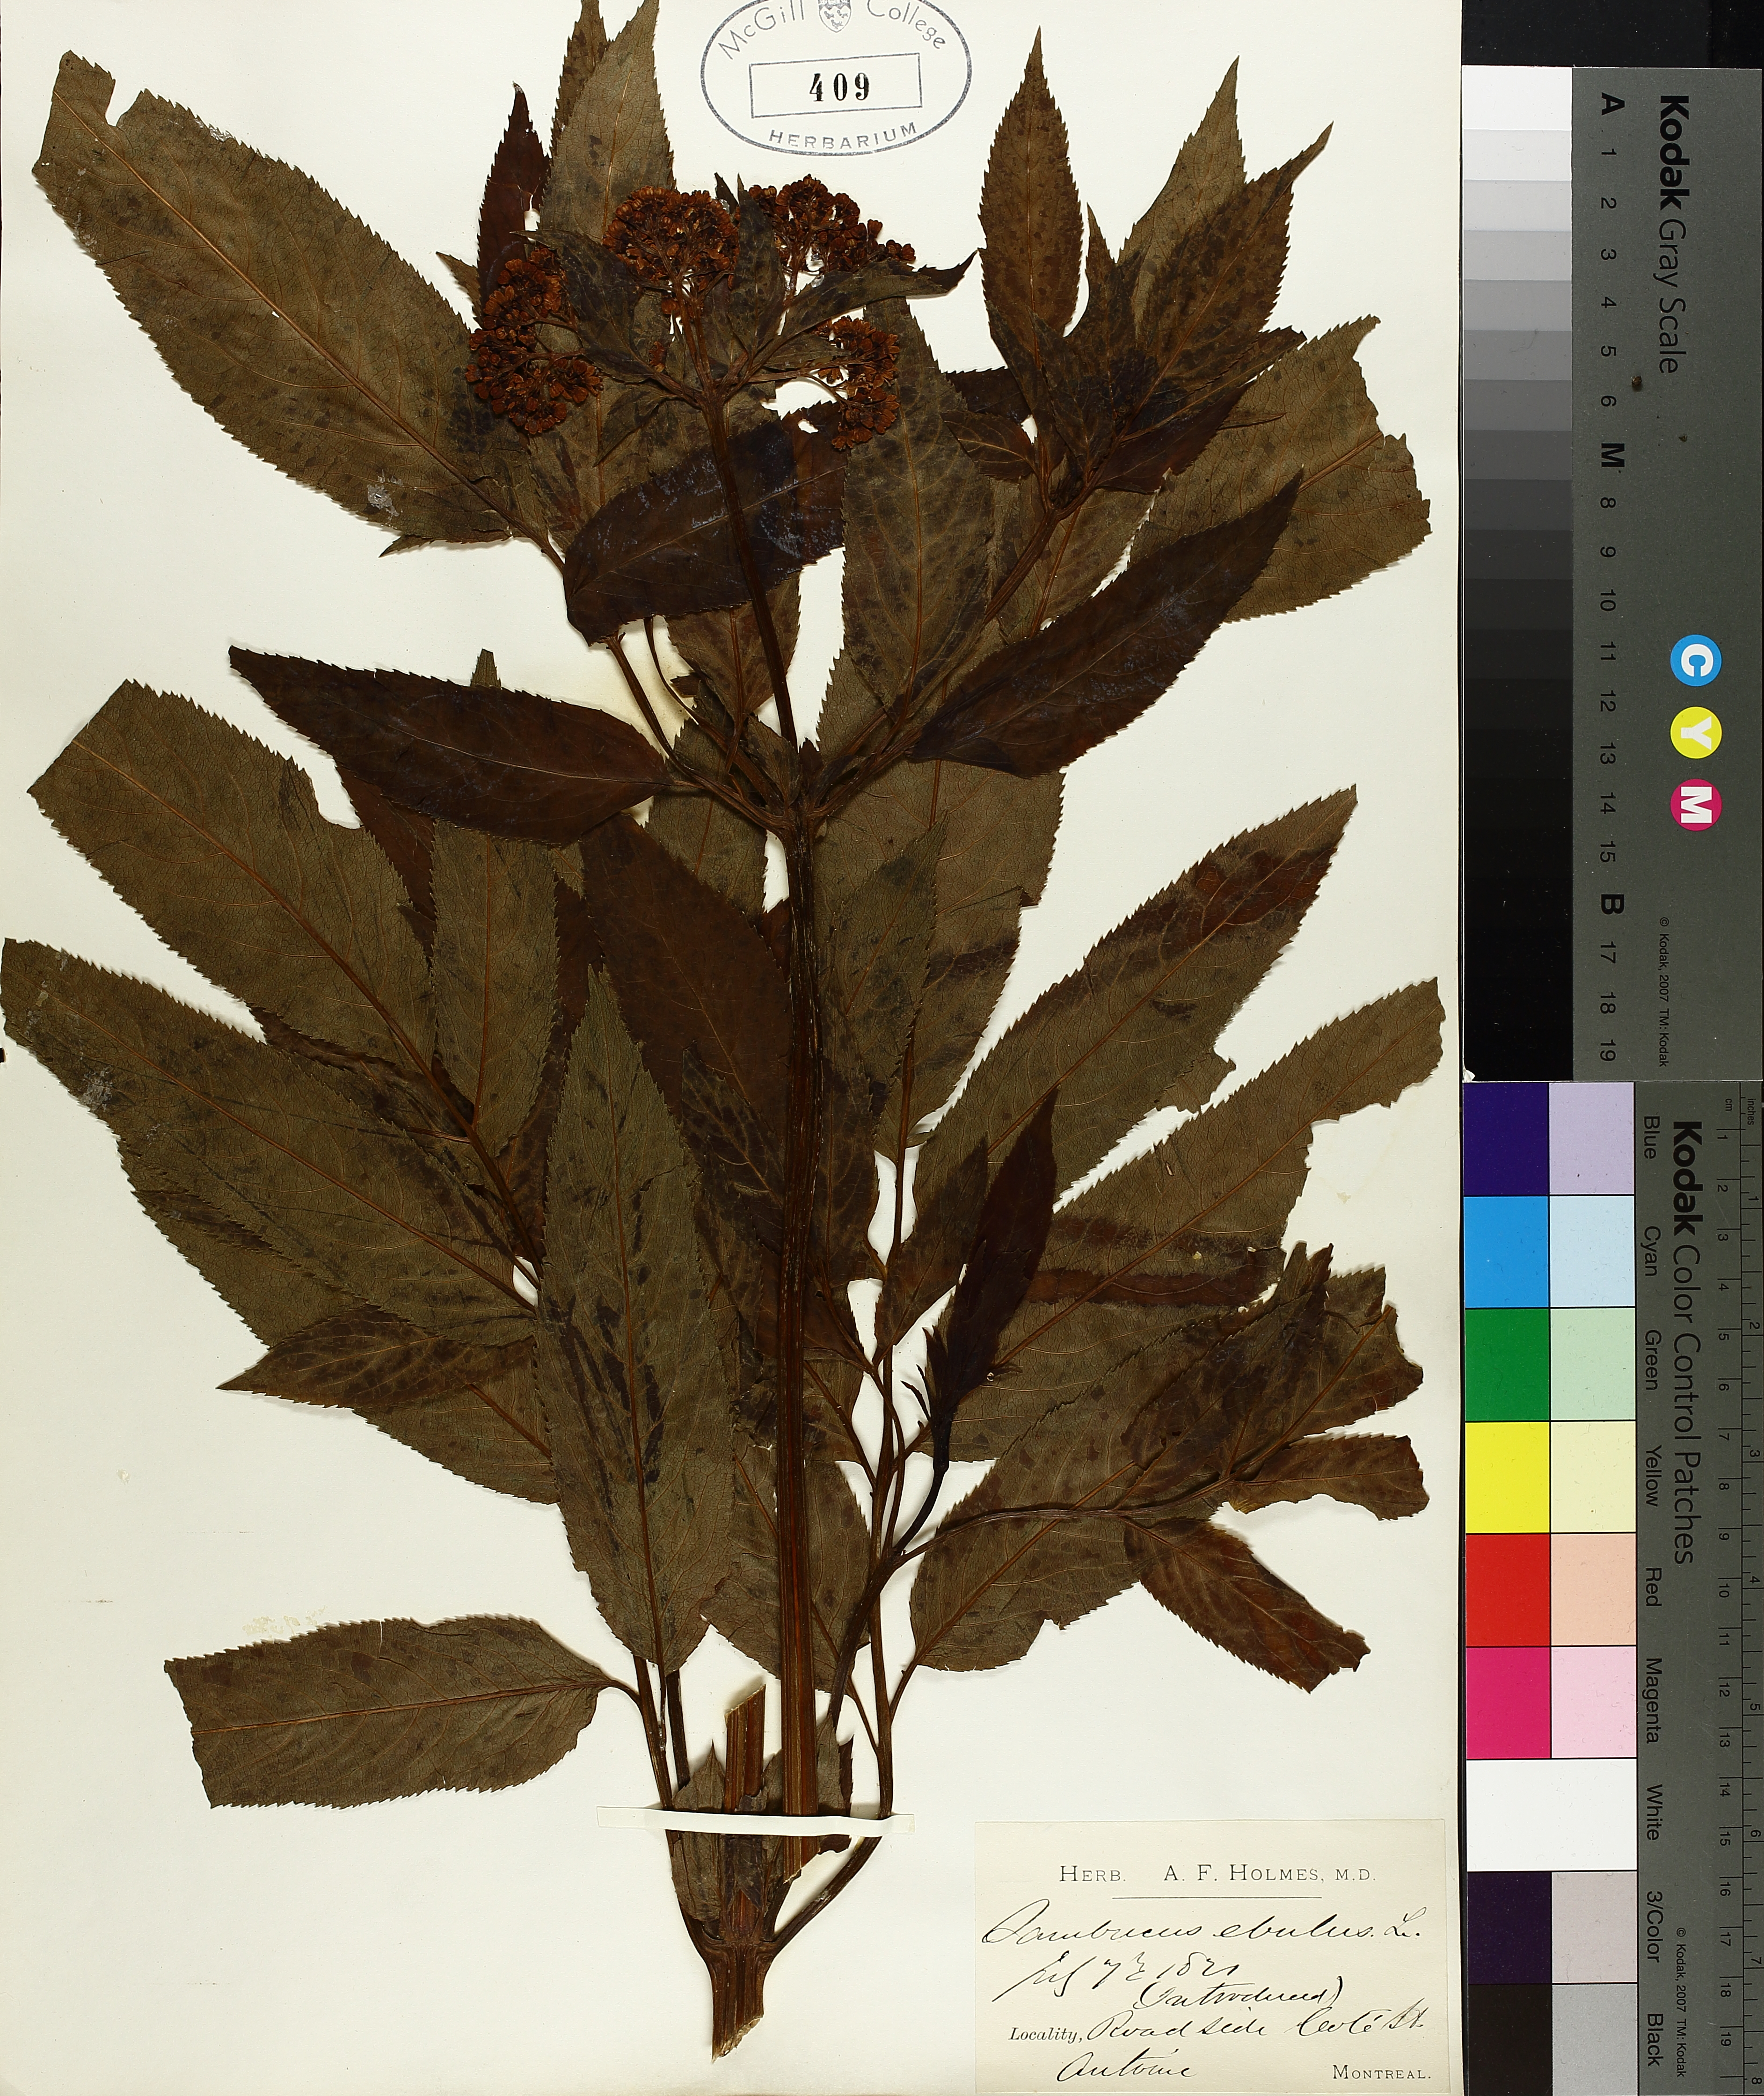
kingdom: Plantae
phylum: Tracheophyta
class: Magnoliopsida
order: Dipsacales
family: Viburnaceae
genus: Sambucus
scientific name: Sambucus ebulus
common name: Dwarf elder
